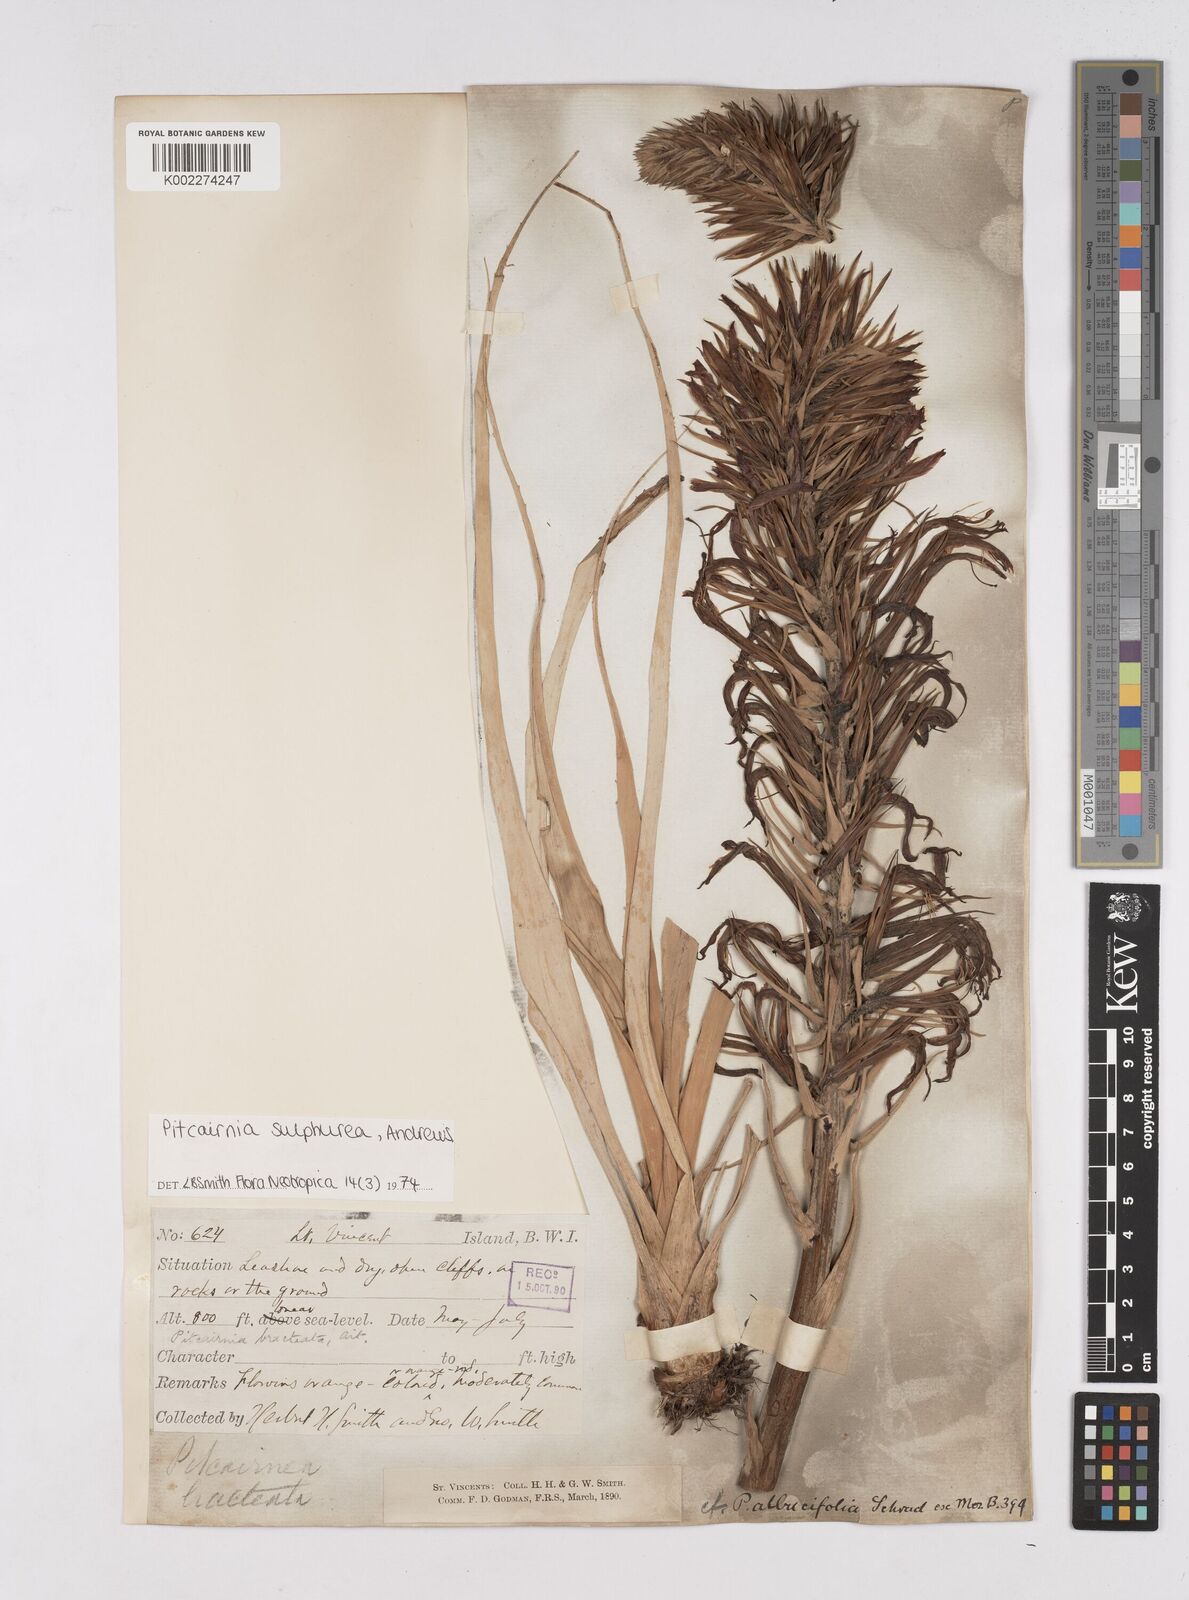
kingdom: Plantae
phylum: Tracheophyta
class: Liliopsida
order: Poales
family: Bromeliaceae
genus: Pitcairnia
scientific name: Pitcairnia sulphurea
